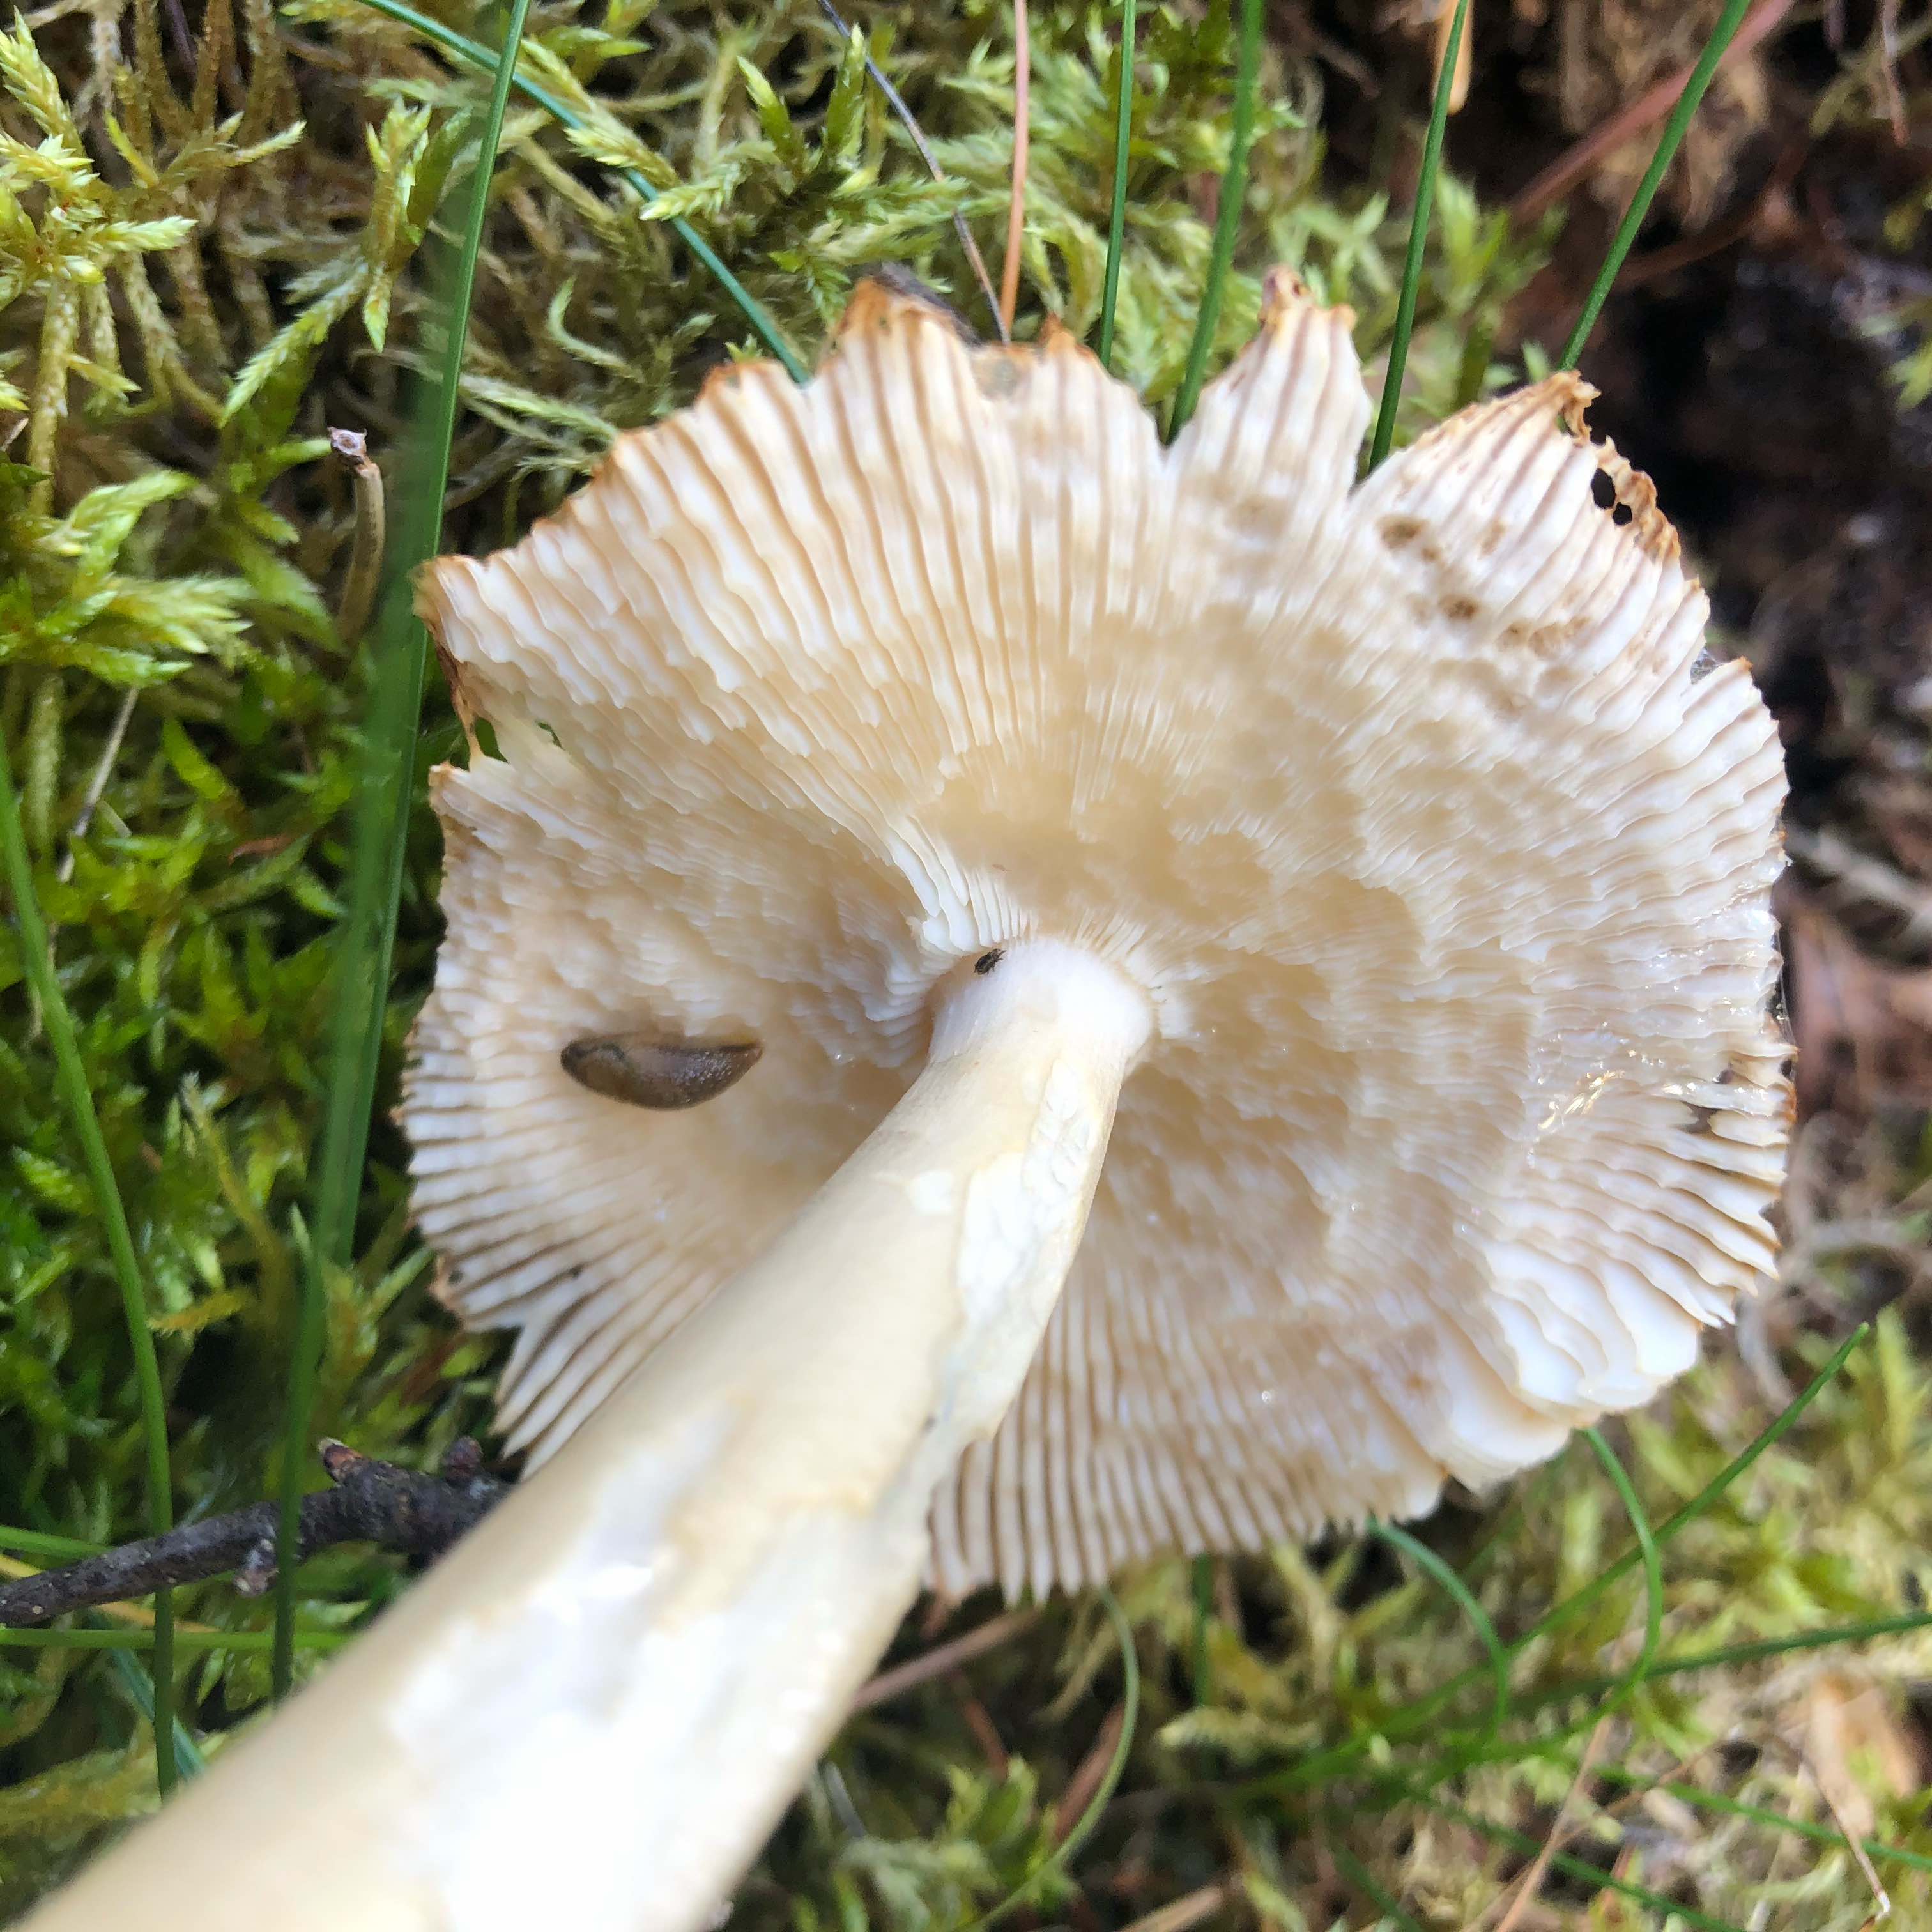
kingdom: Fungi
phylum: Basidiomycota
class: Agaricomycetes
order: Agaricales
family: Amanitaceae
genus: Amanita
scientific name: Amanita fulva
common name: brun kam-fluesvamp
